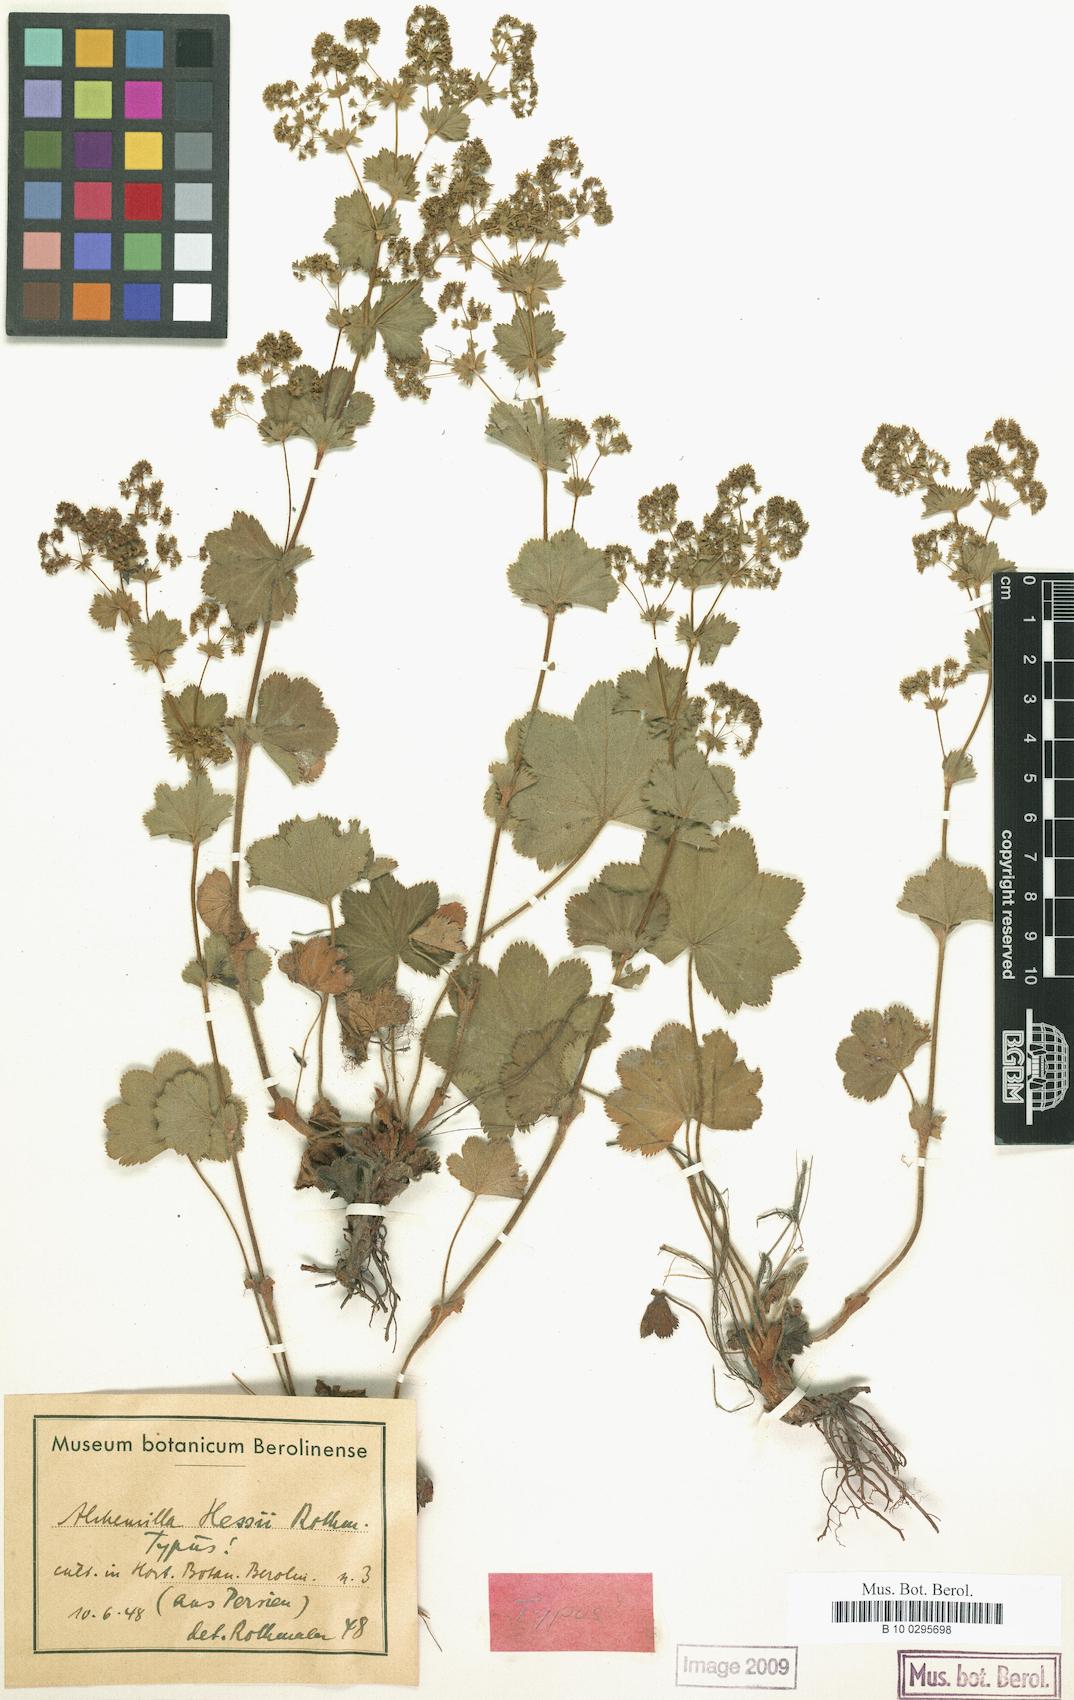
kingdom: Plantae
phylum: Tracheophyta
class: Magnoliopsida
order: Rosales
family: Rosaceae
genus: Alchemilla
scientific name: Alchemilla hessii
